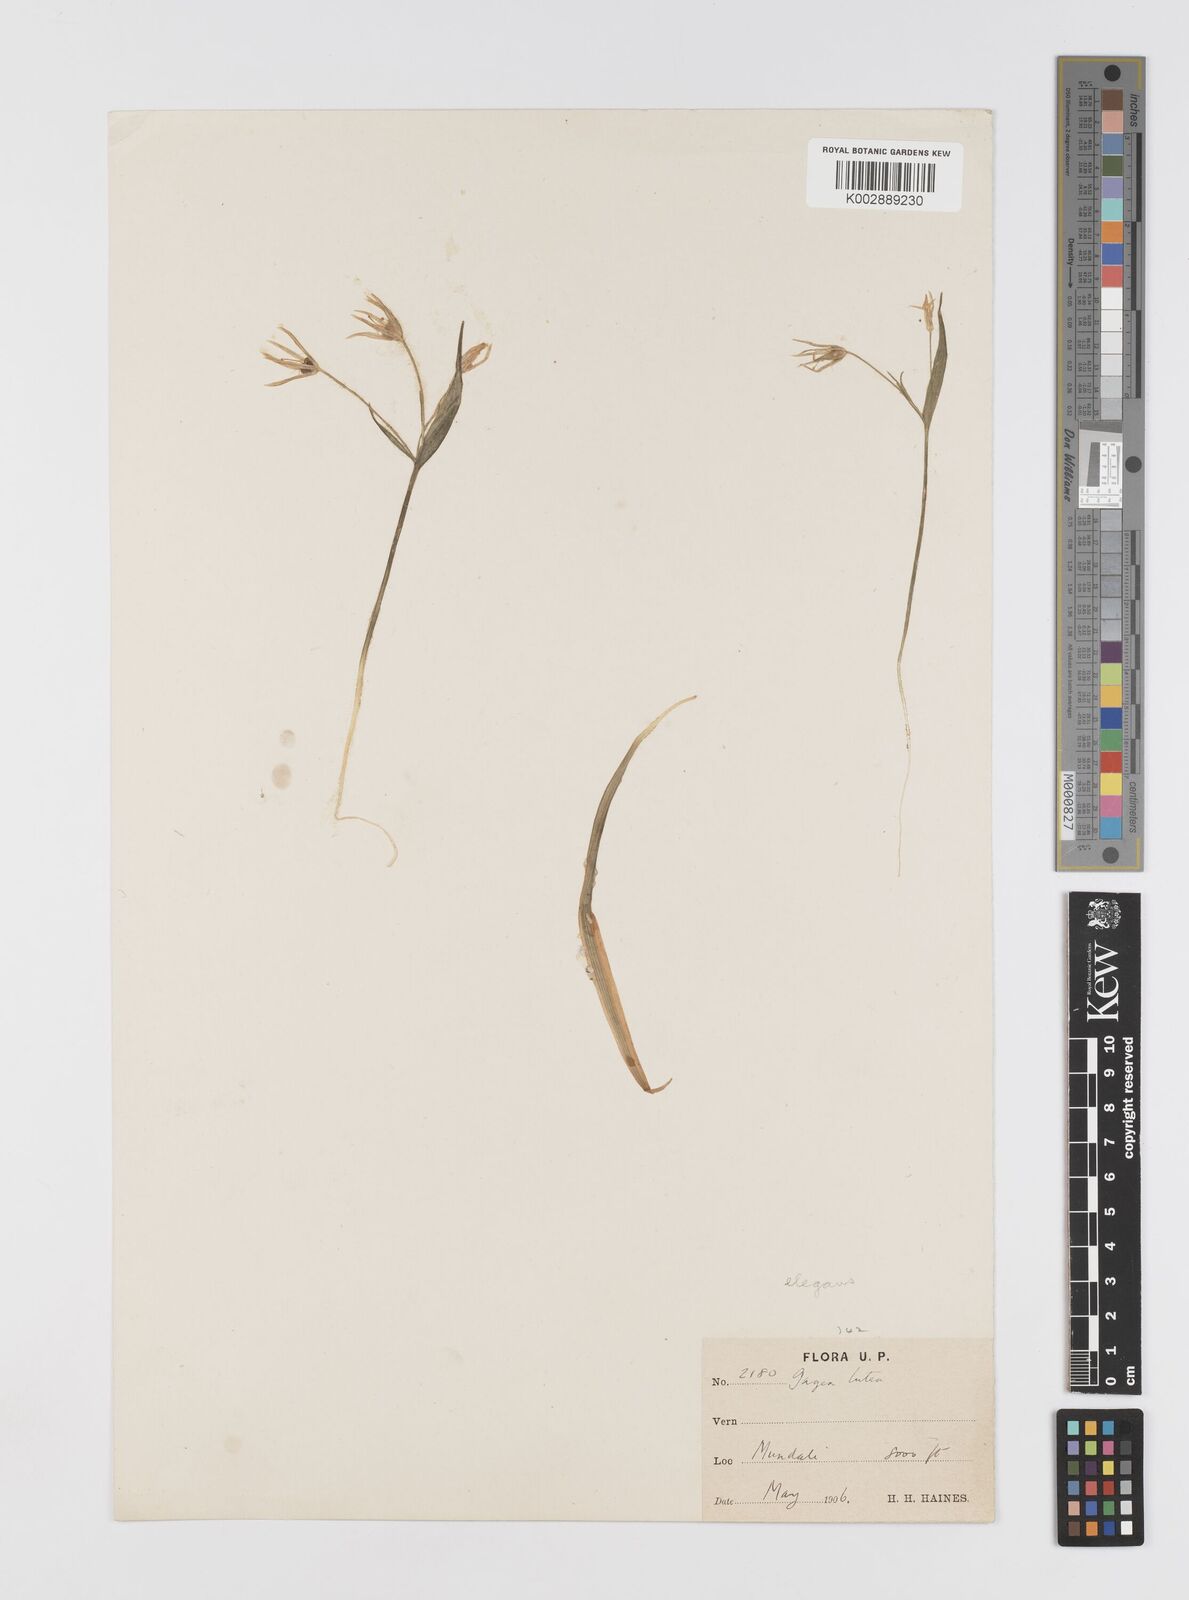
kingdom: Plantae
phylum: Tracheophyta
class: Liliopsida
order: Liliales
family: Liliaceae
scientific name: Liliaceae
